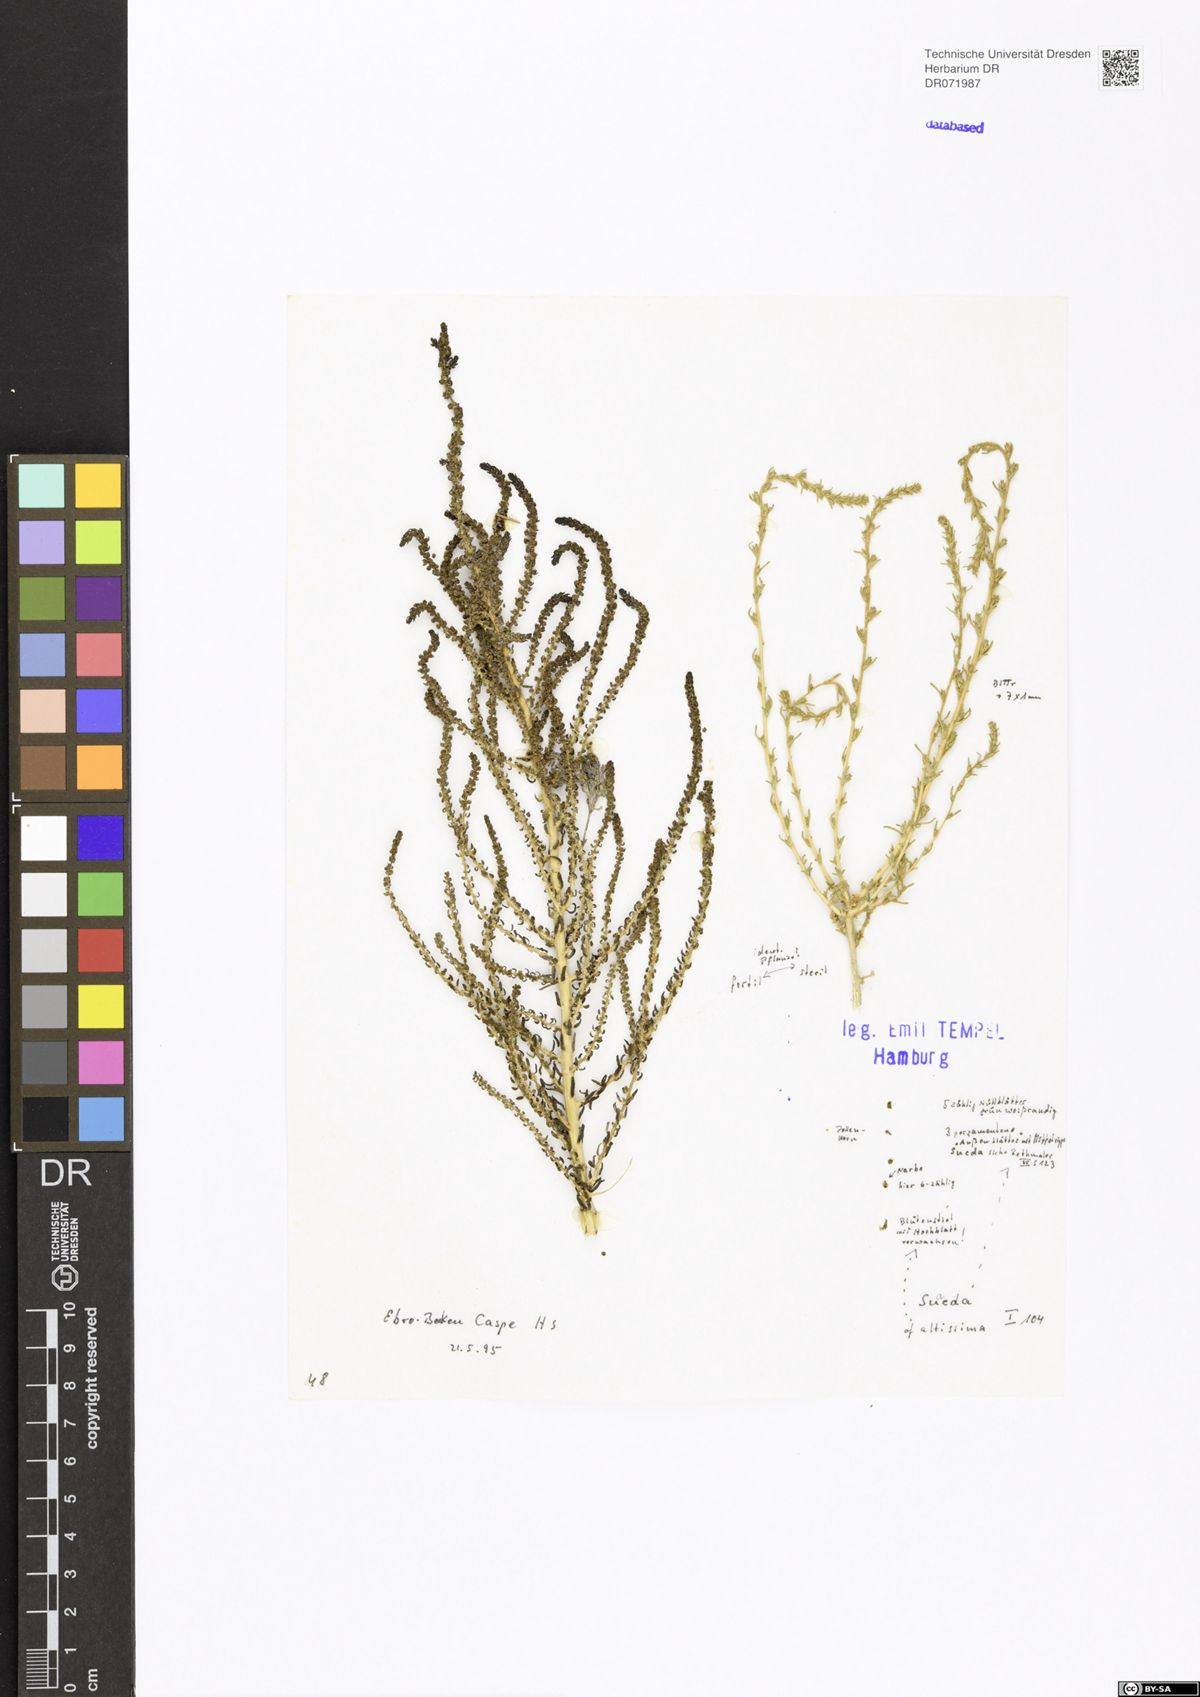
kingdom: Plantae
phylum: Tracheophyta
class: Magnoliopsida
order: Caryophyllales
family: Amaranthaceae
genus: Suaeda
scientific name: Suaeda altissima
